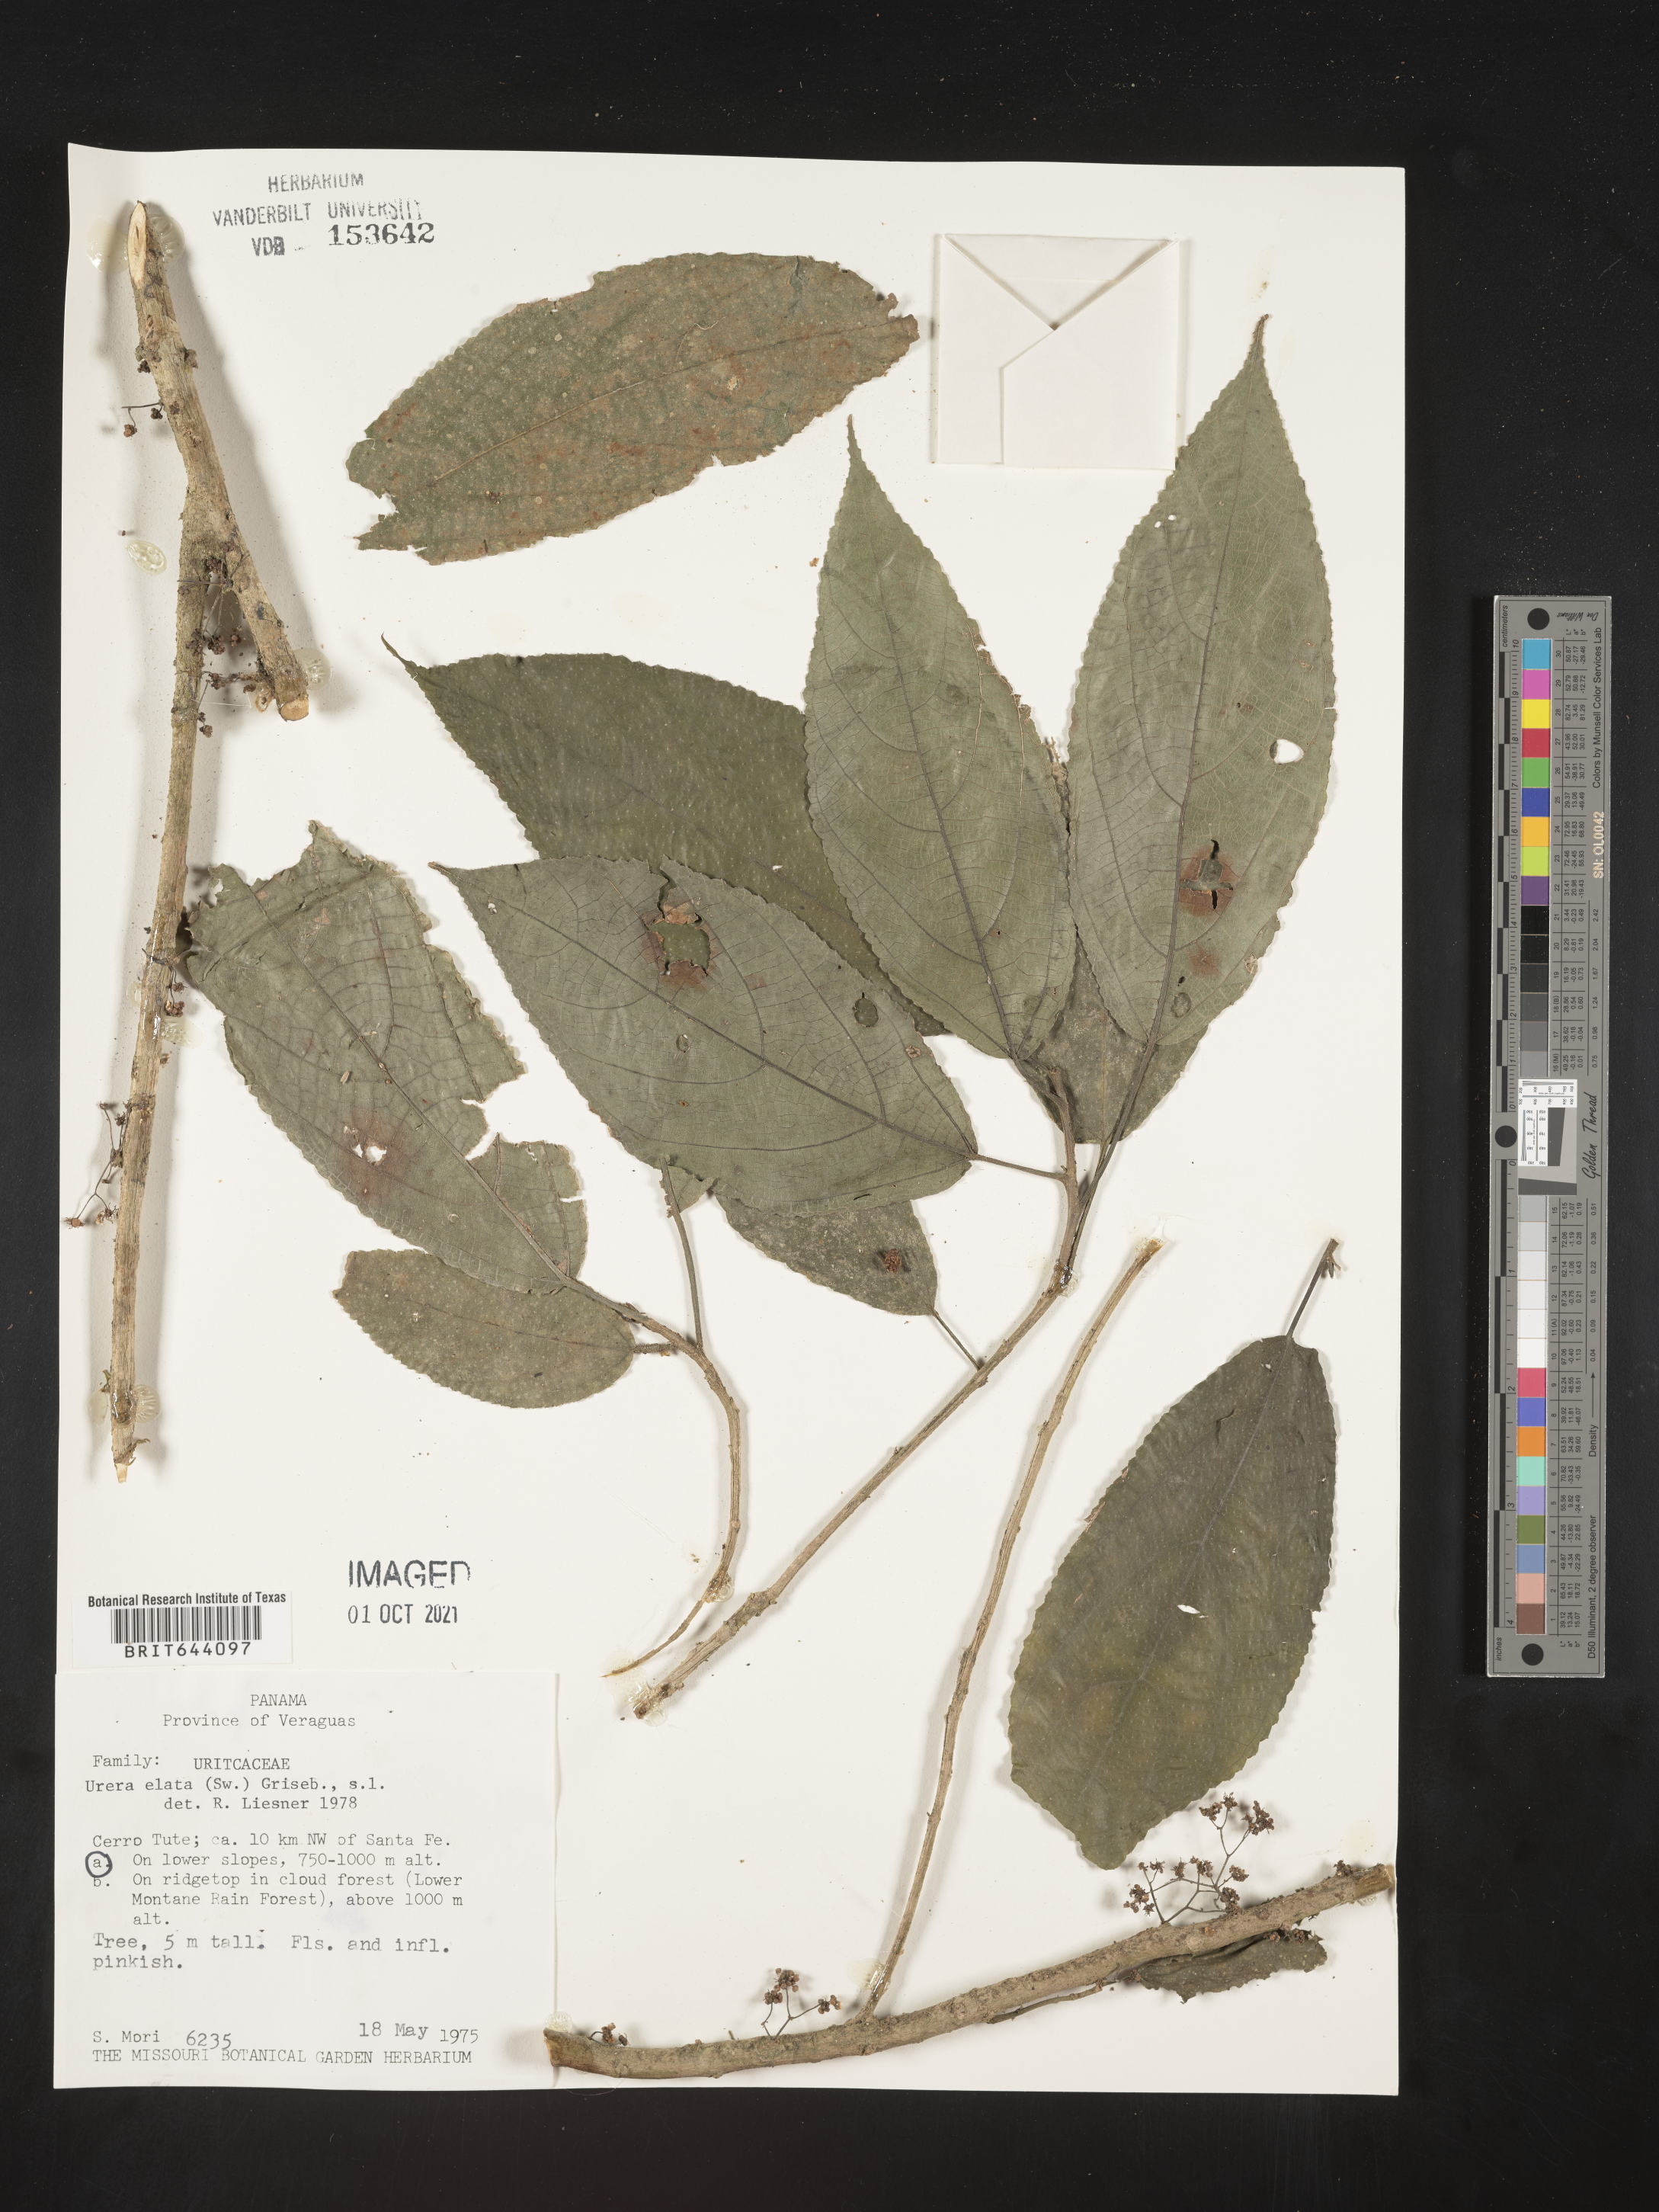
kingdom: Plantae
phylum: Tracheophyta
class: Magnoliopsida
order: Rosales
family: Urticaceae
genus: Urera
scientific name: Urera
